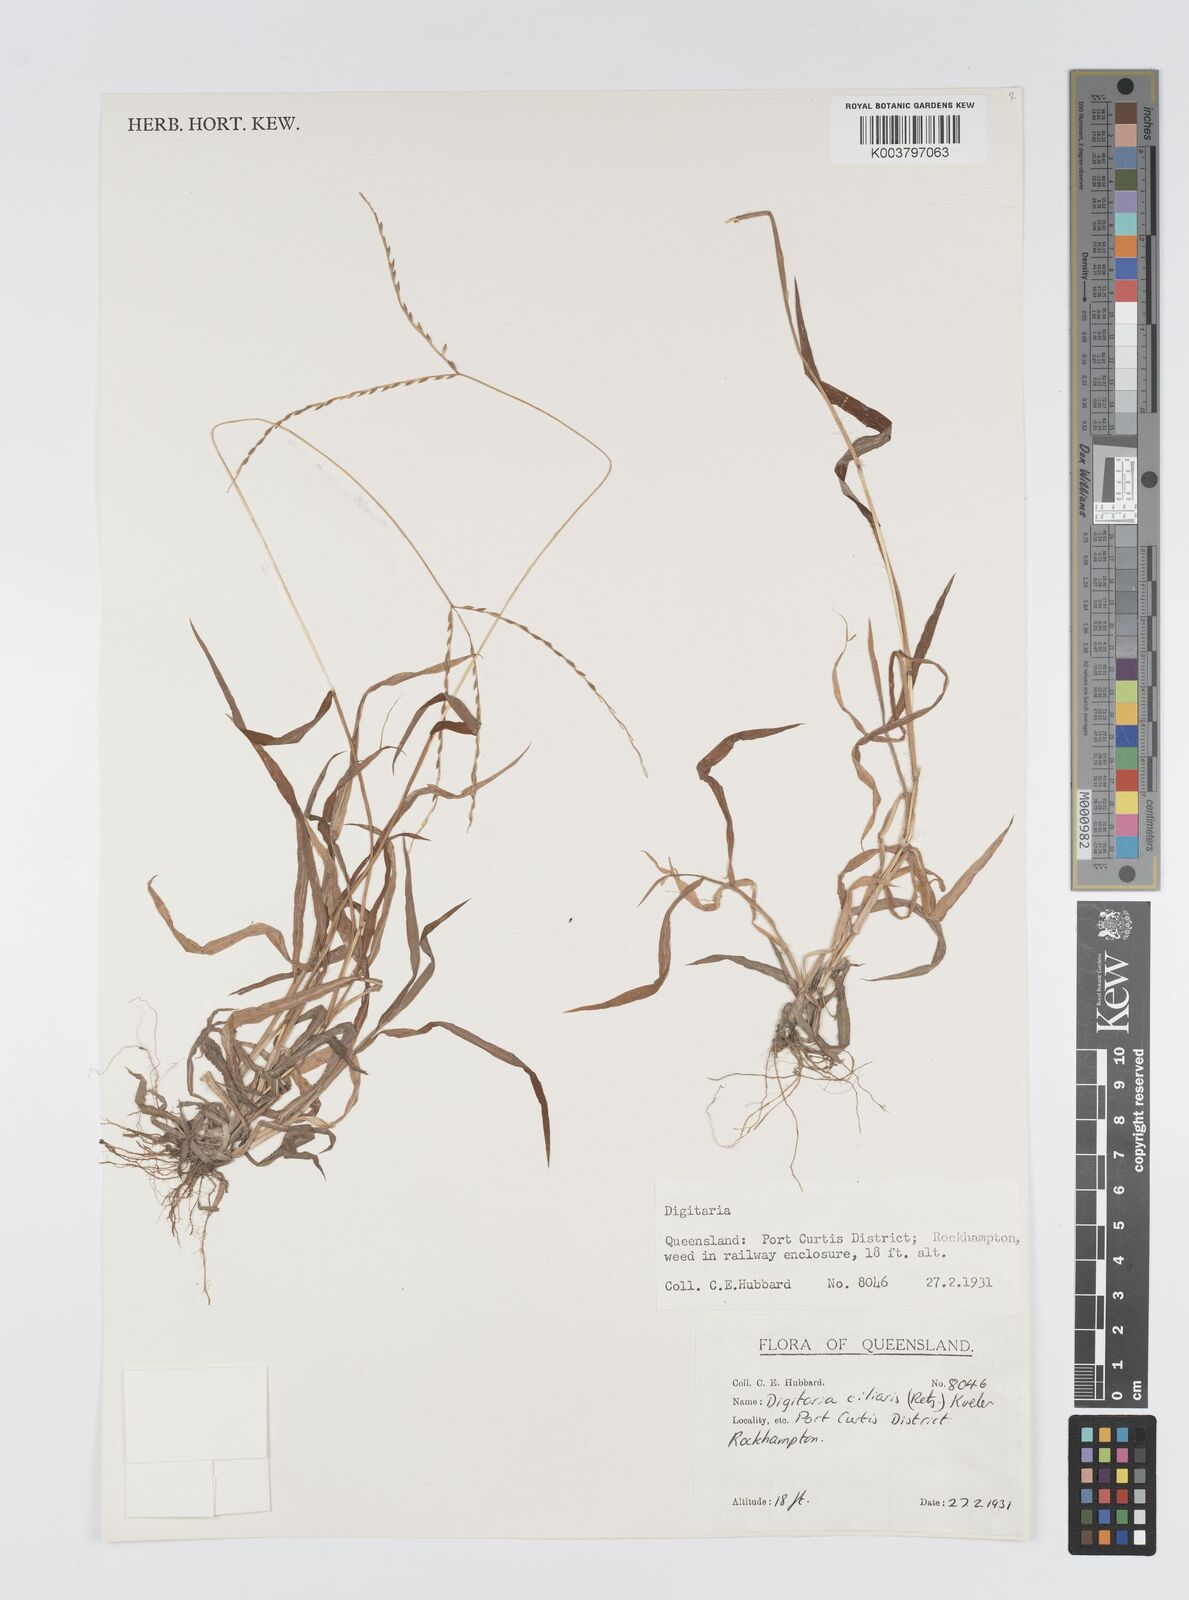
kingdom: Plantae
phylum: Tracheophyta
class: Liliopsida
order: Poales
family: Poaceae
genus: Digitaria
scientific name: Digitaria ciliaris
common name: Tropical finger-grass
